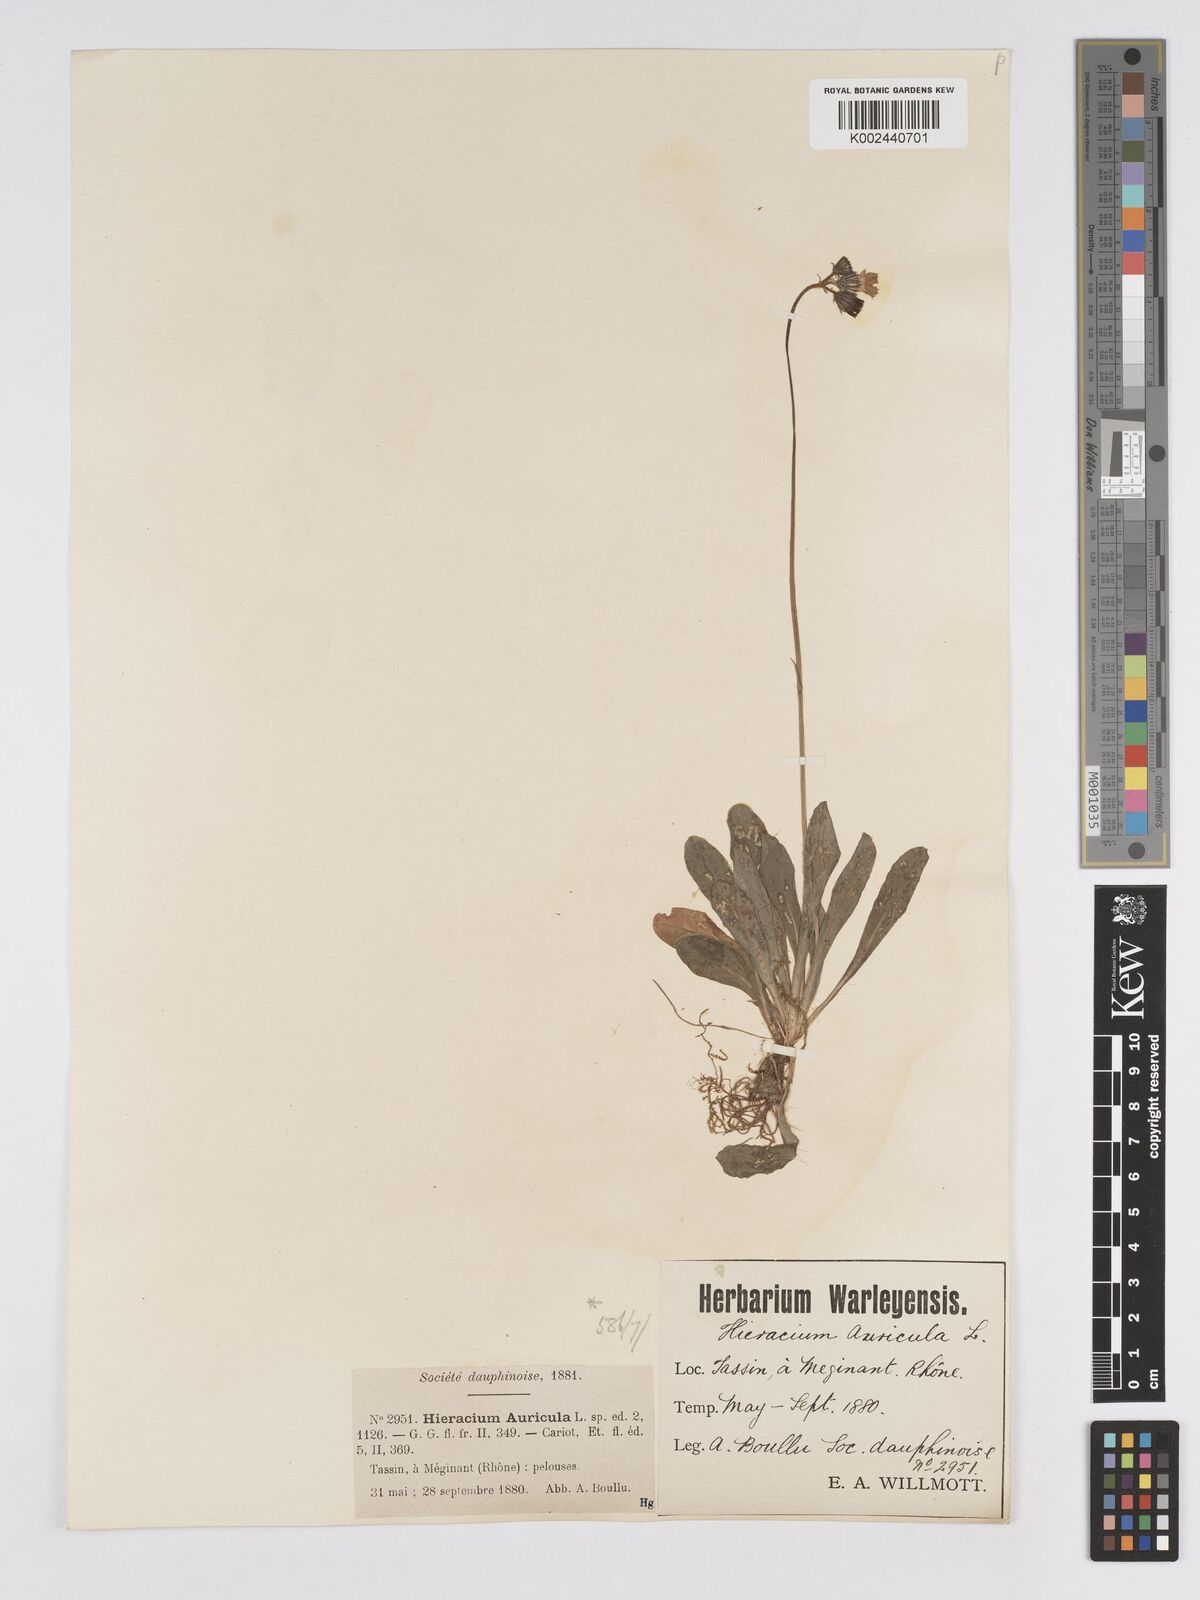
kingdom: Plantae
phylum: Tracheophyta
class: Magnoliopsida
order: Asterales
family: Asteraceae
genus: Pilosella
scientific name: Pilosella floribunda
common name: Glaucous hawkweed
